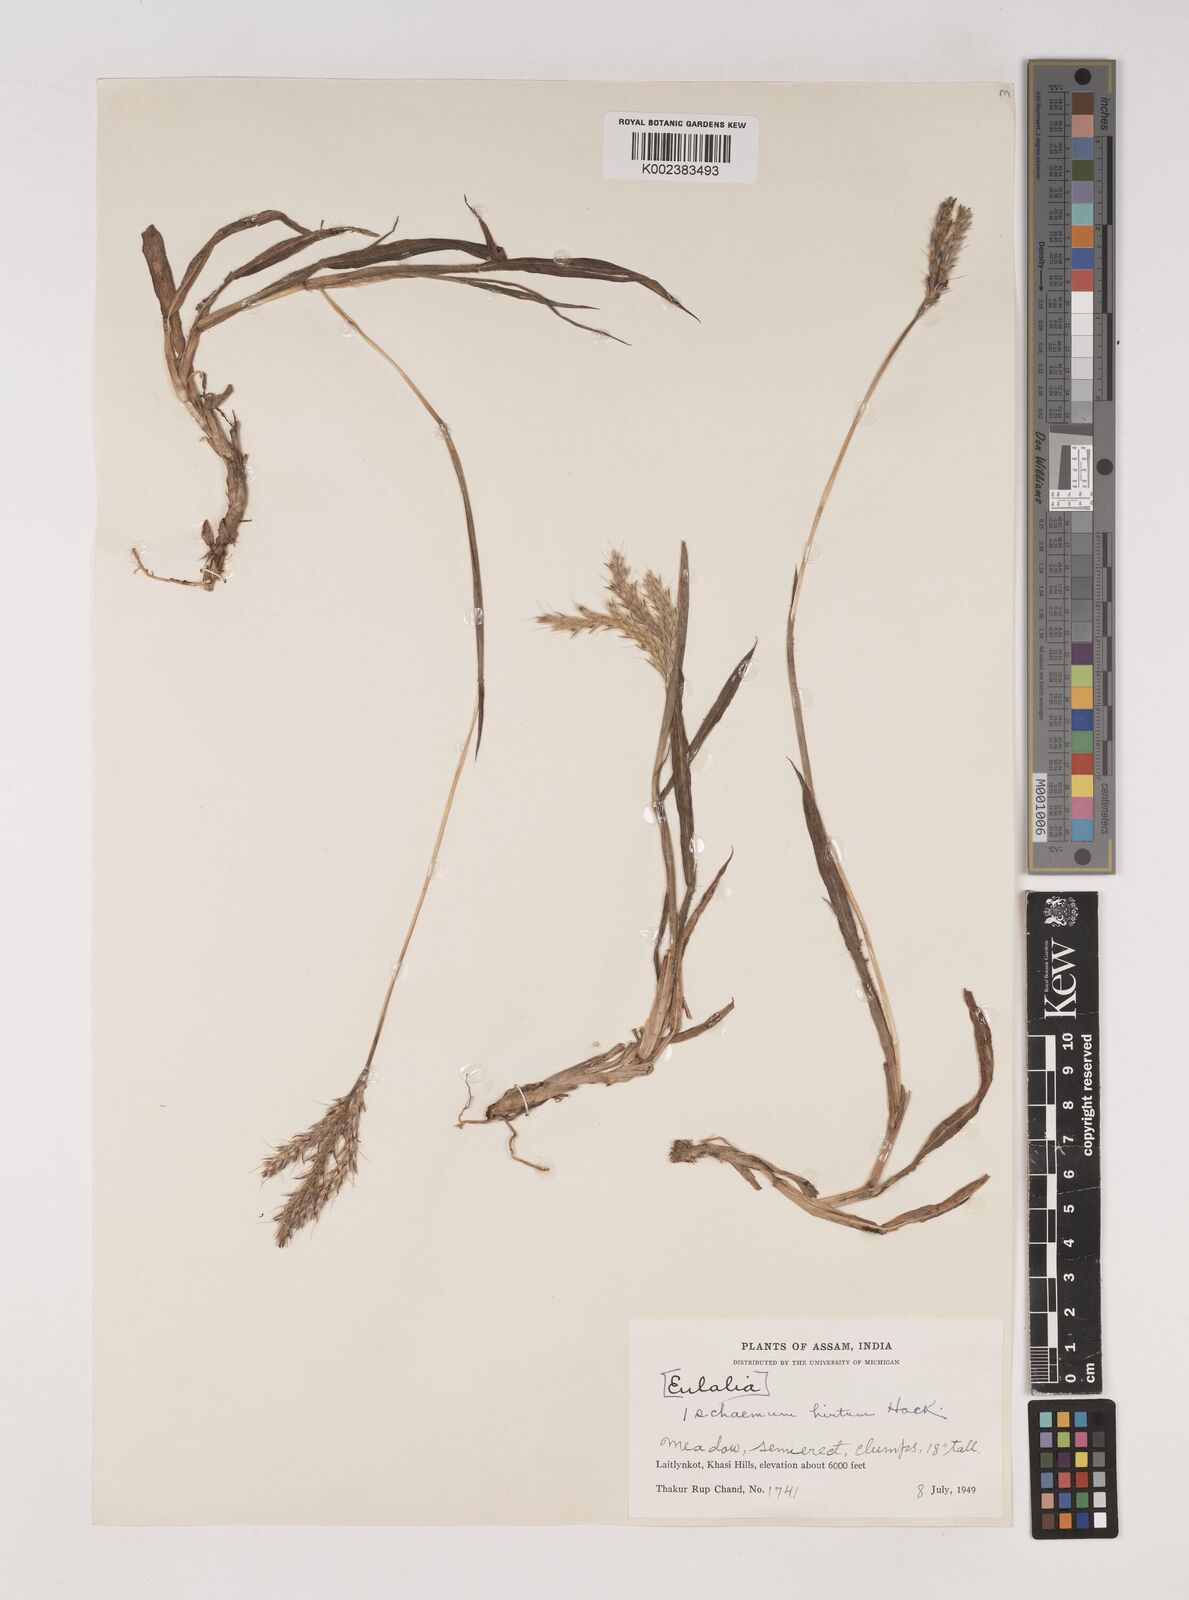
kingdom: Plantae
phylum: Tracheophyta
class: Liliopsida
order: Poales
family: Poaceae
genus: Ischaemum
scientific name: Ischaemum
